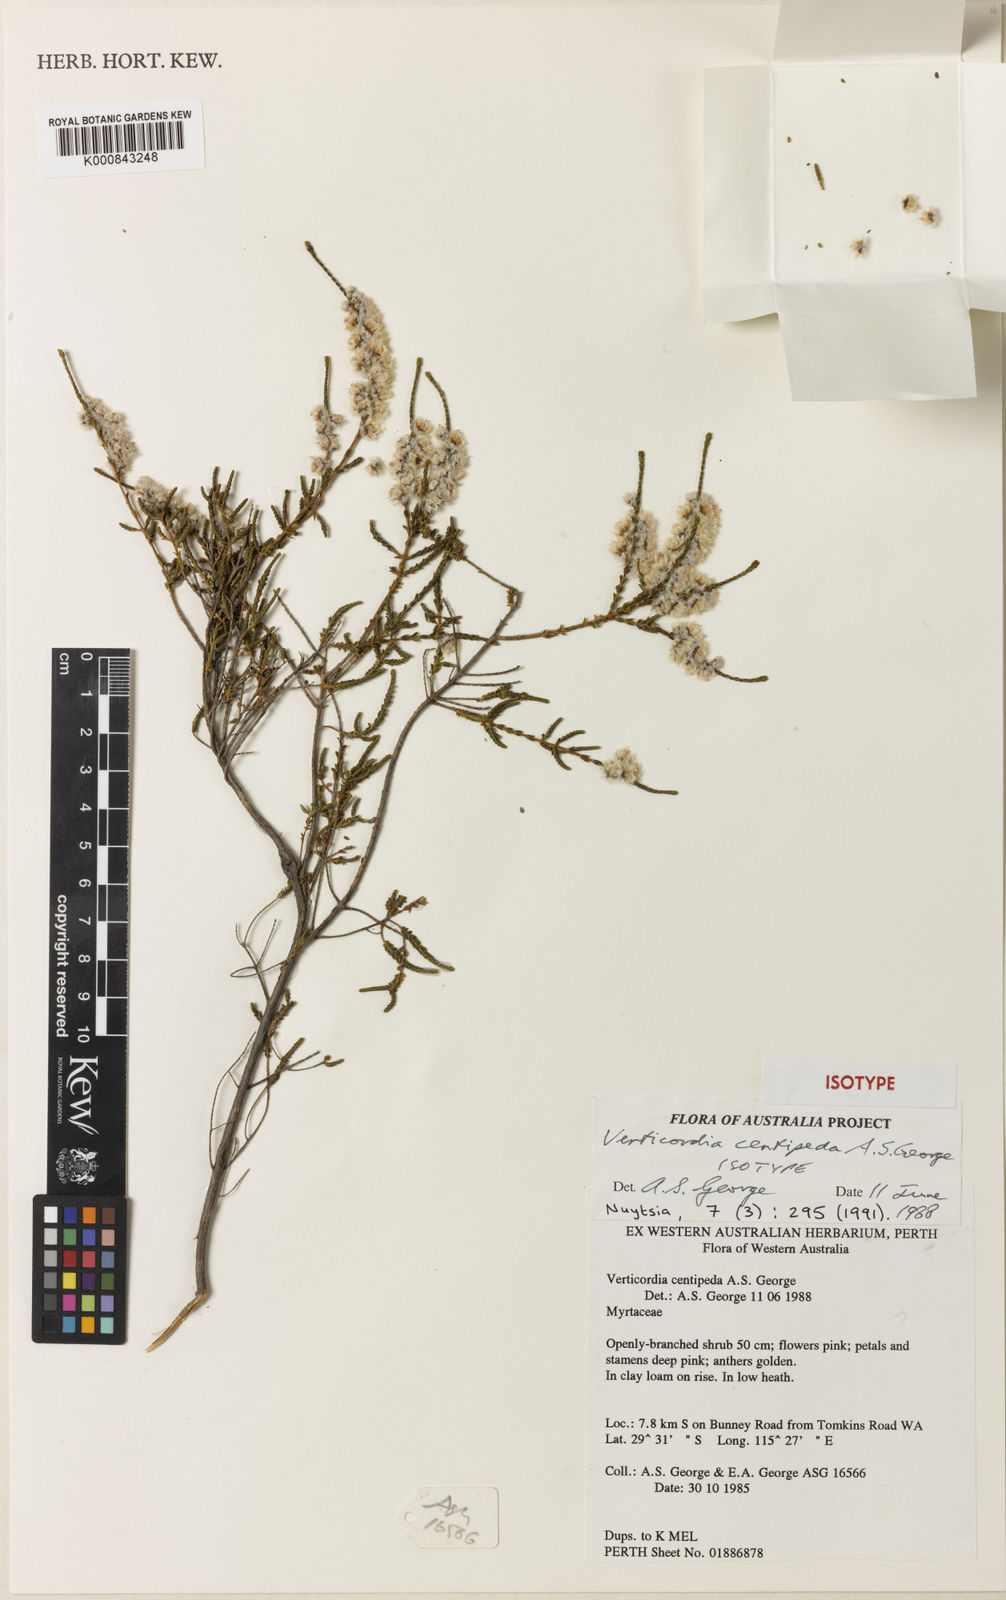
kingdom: Plantae
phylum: Tracheophyta
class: Magnoliopsida
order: Myrtales
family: Myrtaceae
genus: Verticordia
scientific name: Verticordia centipeda
